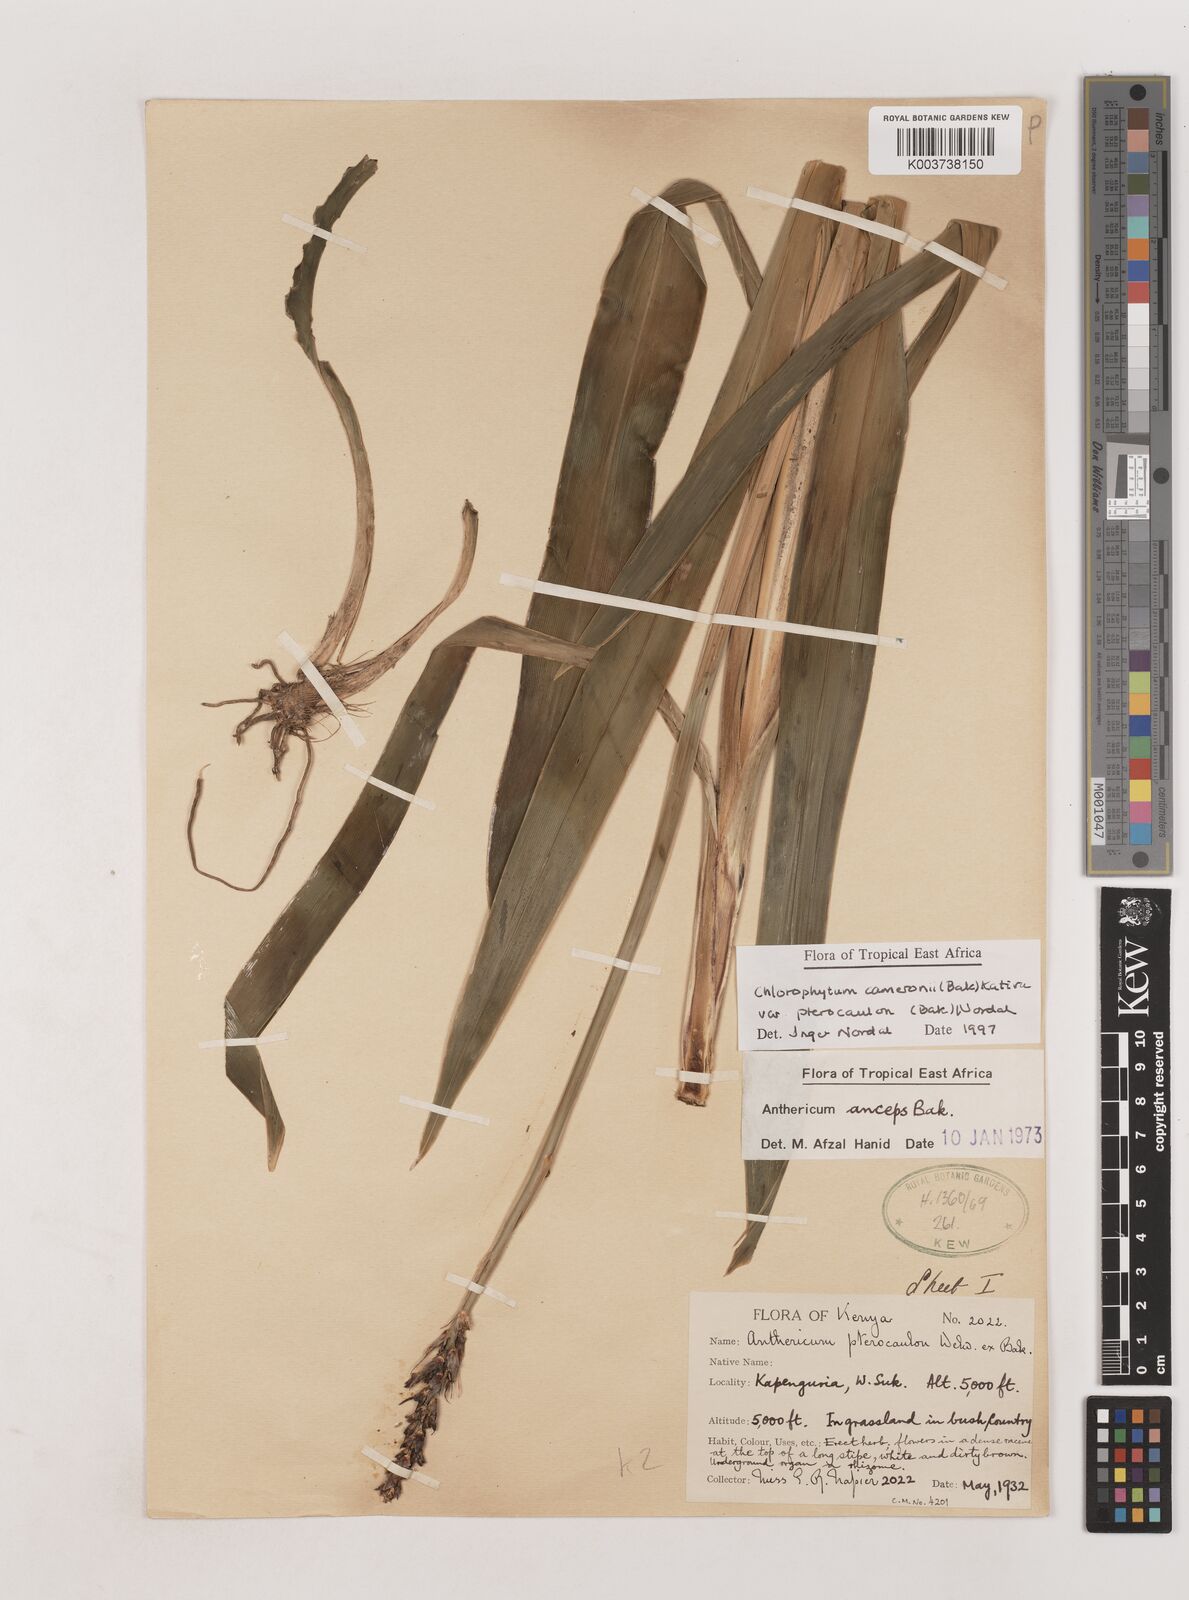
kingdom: Plantae
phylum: Tracheophyta
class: Liliopsida
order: Asparagales
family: Asparagaceae
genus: Chlorophytum
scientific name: Chlorophytum cameronii
